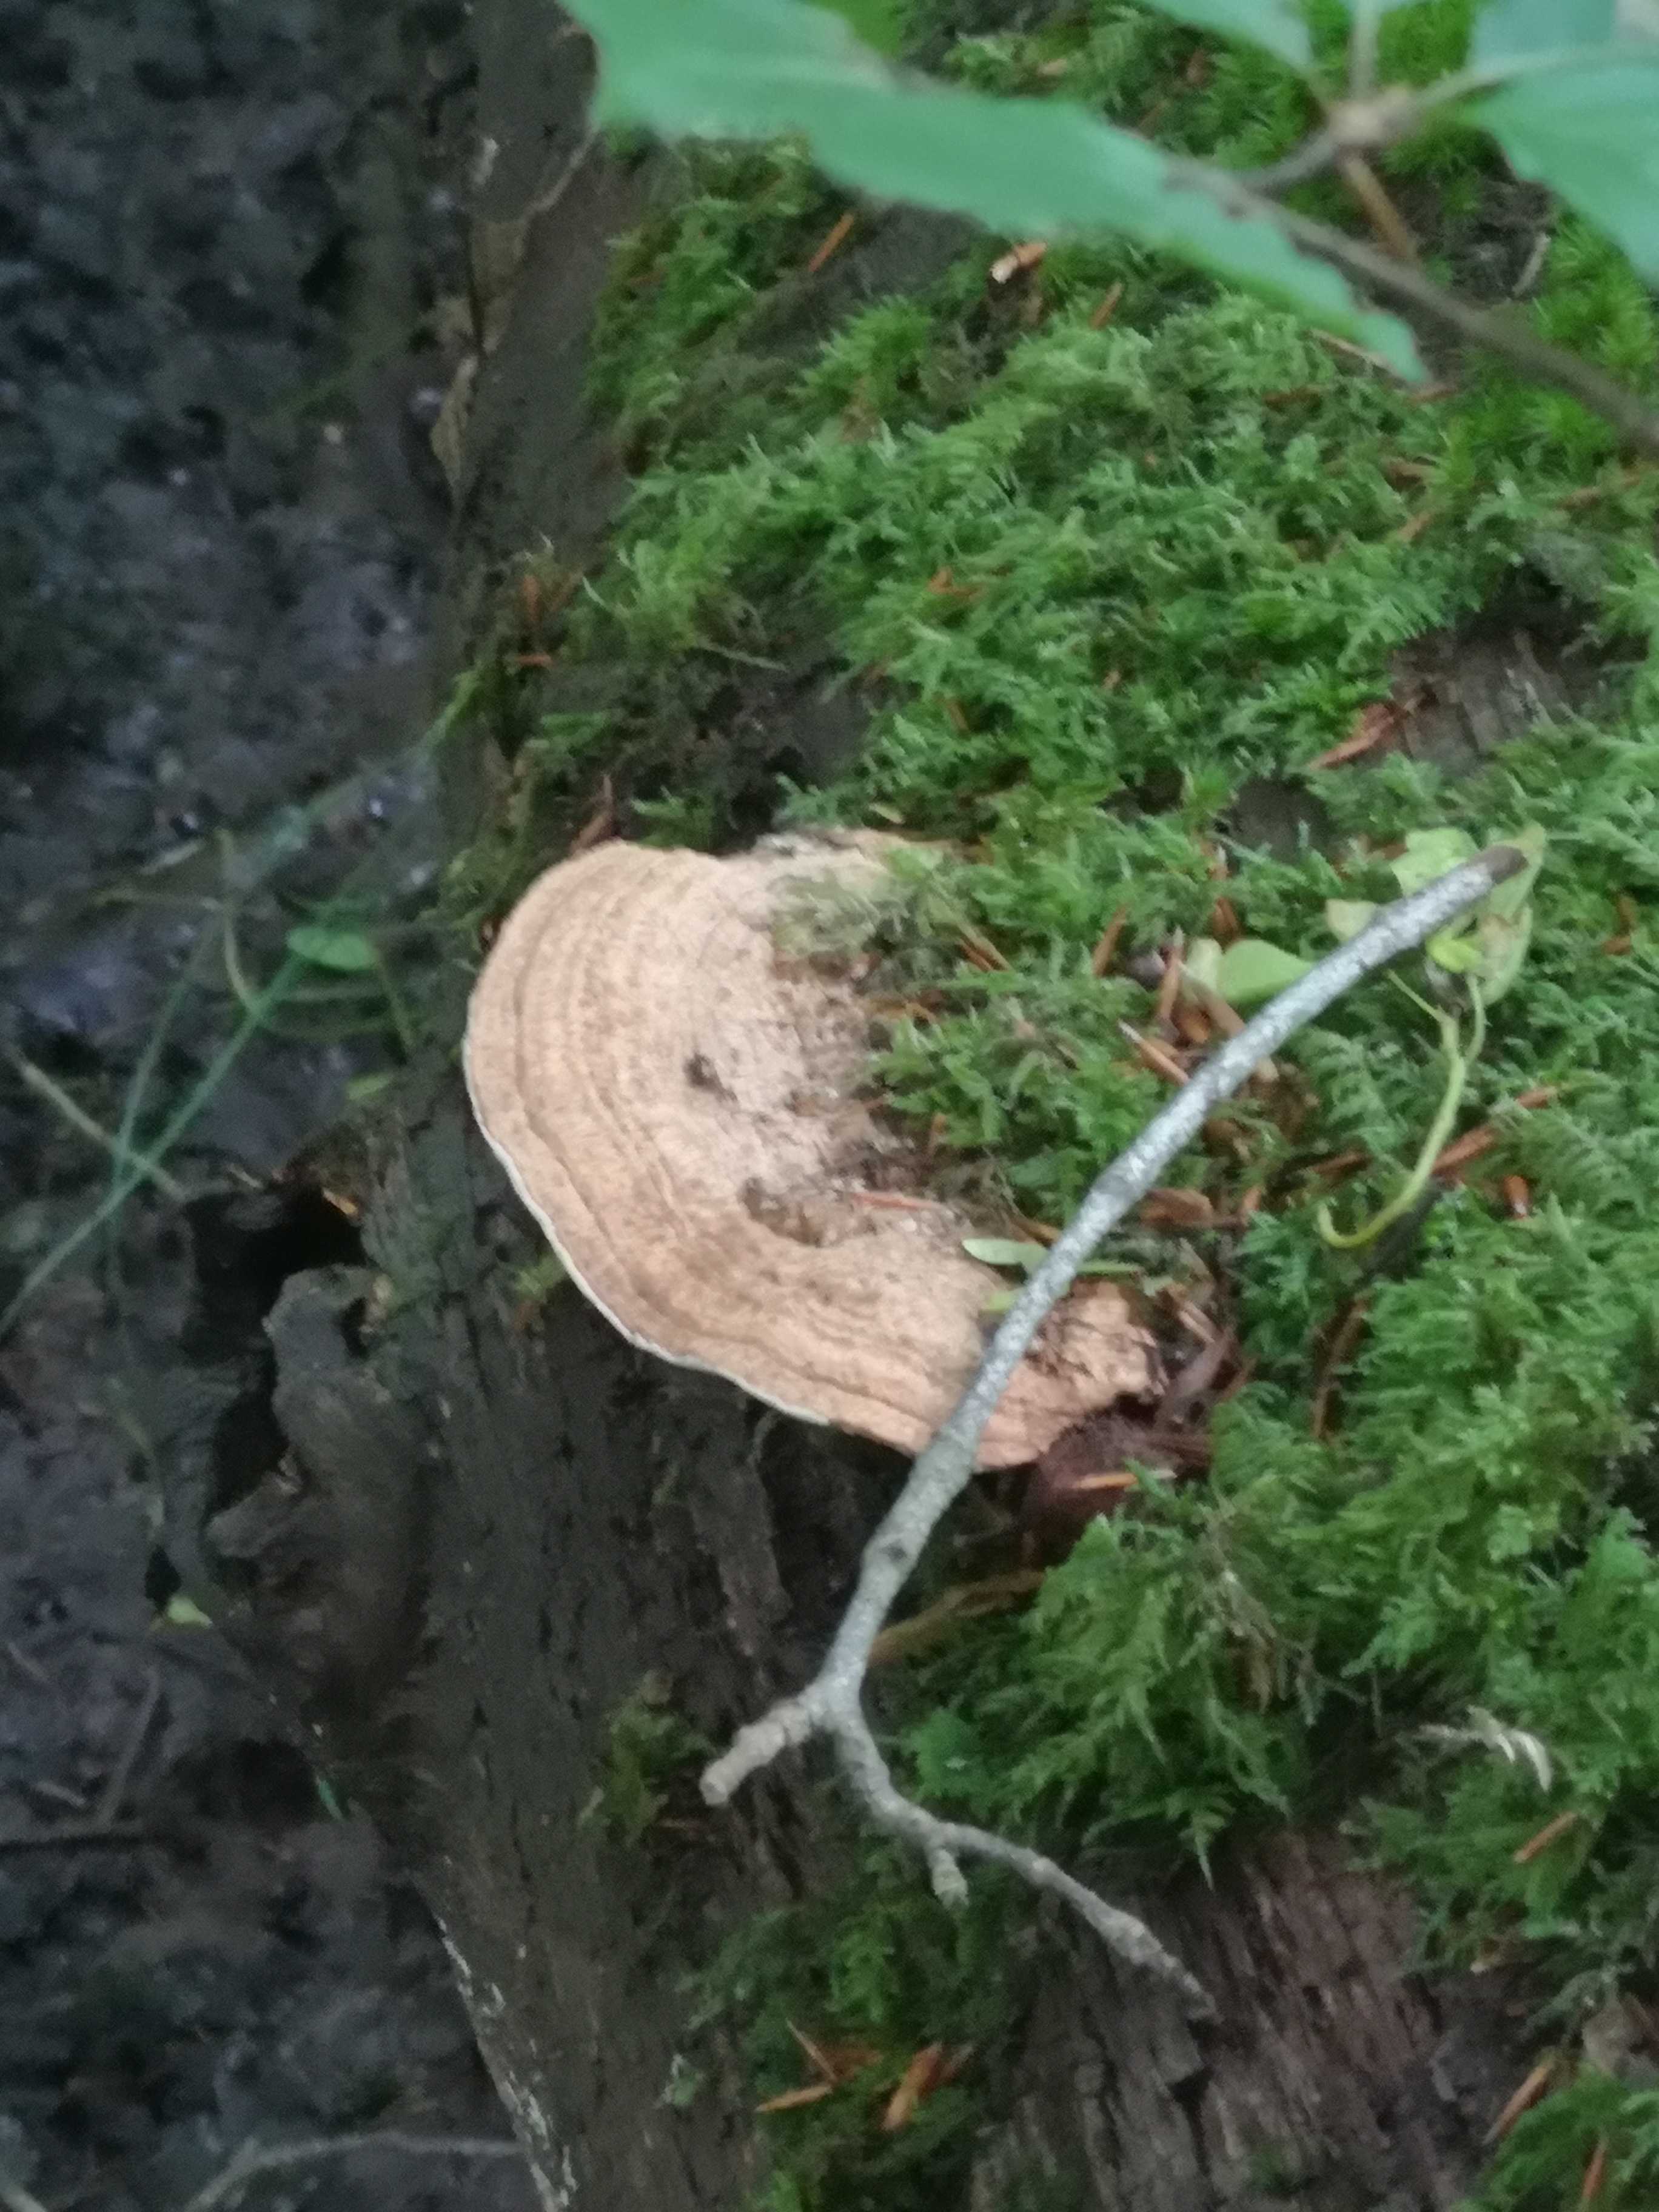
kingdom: Fungi
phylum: Basidiomycota
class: Agaricomycetes
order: Polyporales
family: Fomitopsidaceae
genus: Daedalea
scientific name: Daedalea quercina
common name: ege-labyrintsvamp
